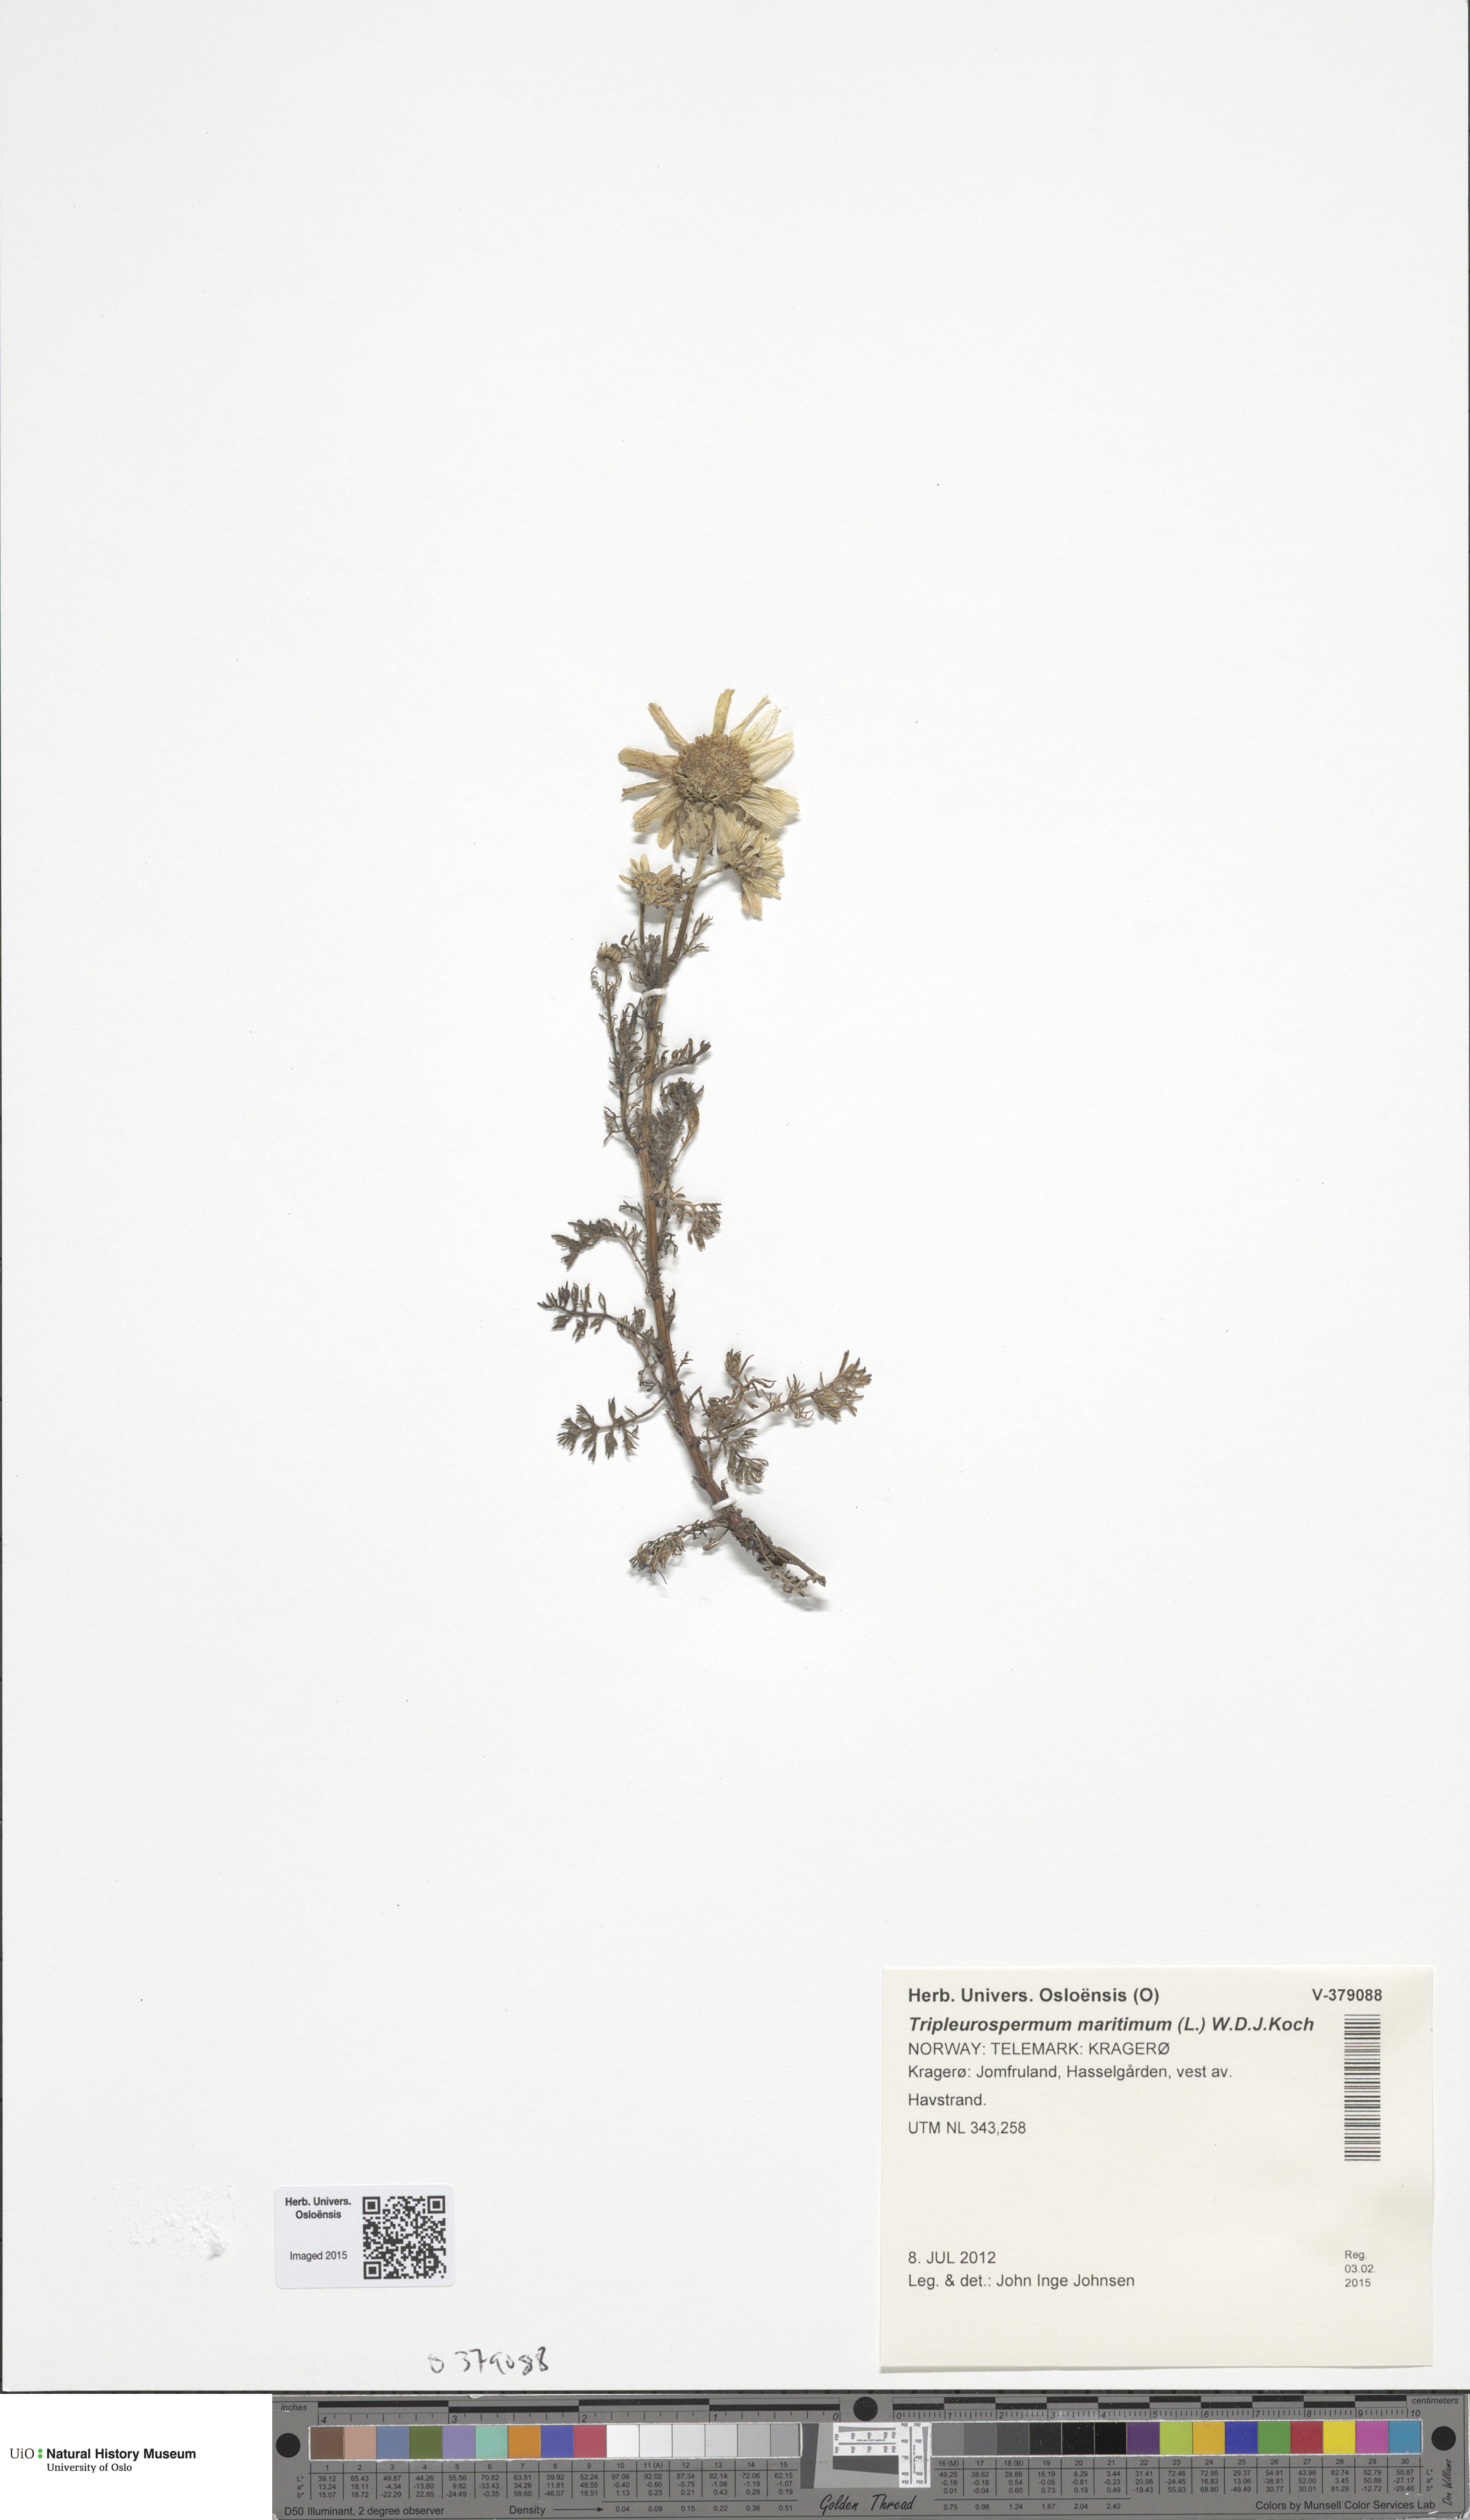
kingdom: Plantae
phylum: Tracheophyta
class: Magnoliopsida
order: Asterales
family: Asteraceae
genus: Tripleurospermum
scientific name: Tripleurospermum maritimum
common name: Sea mayweed
